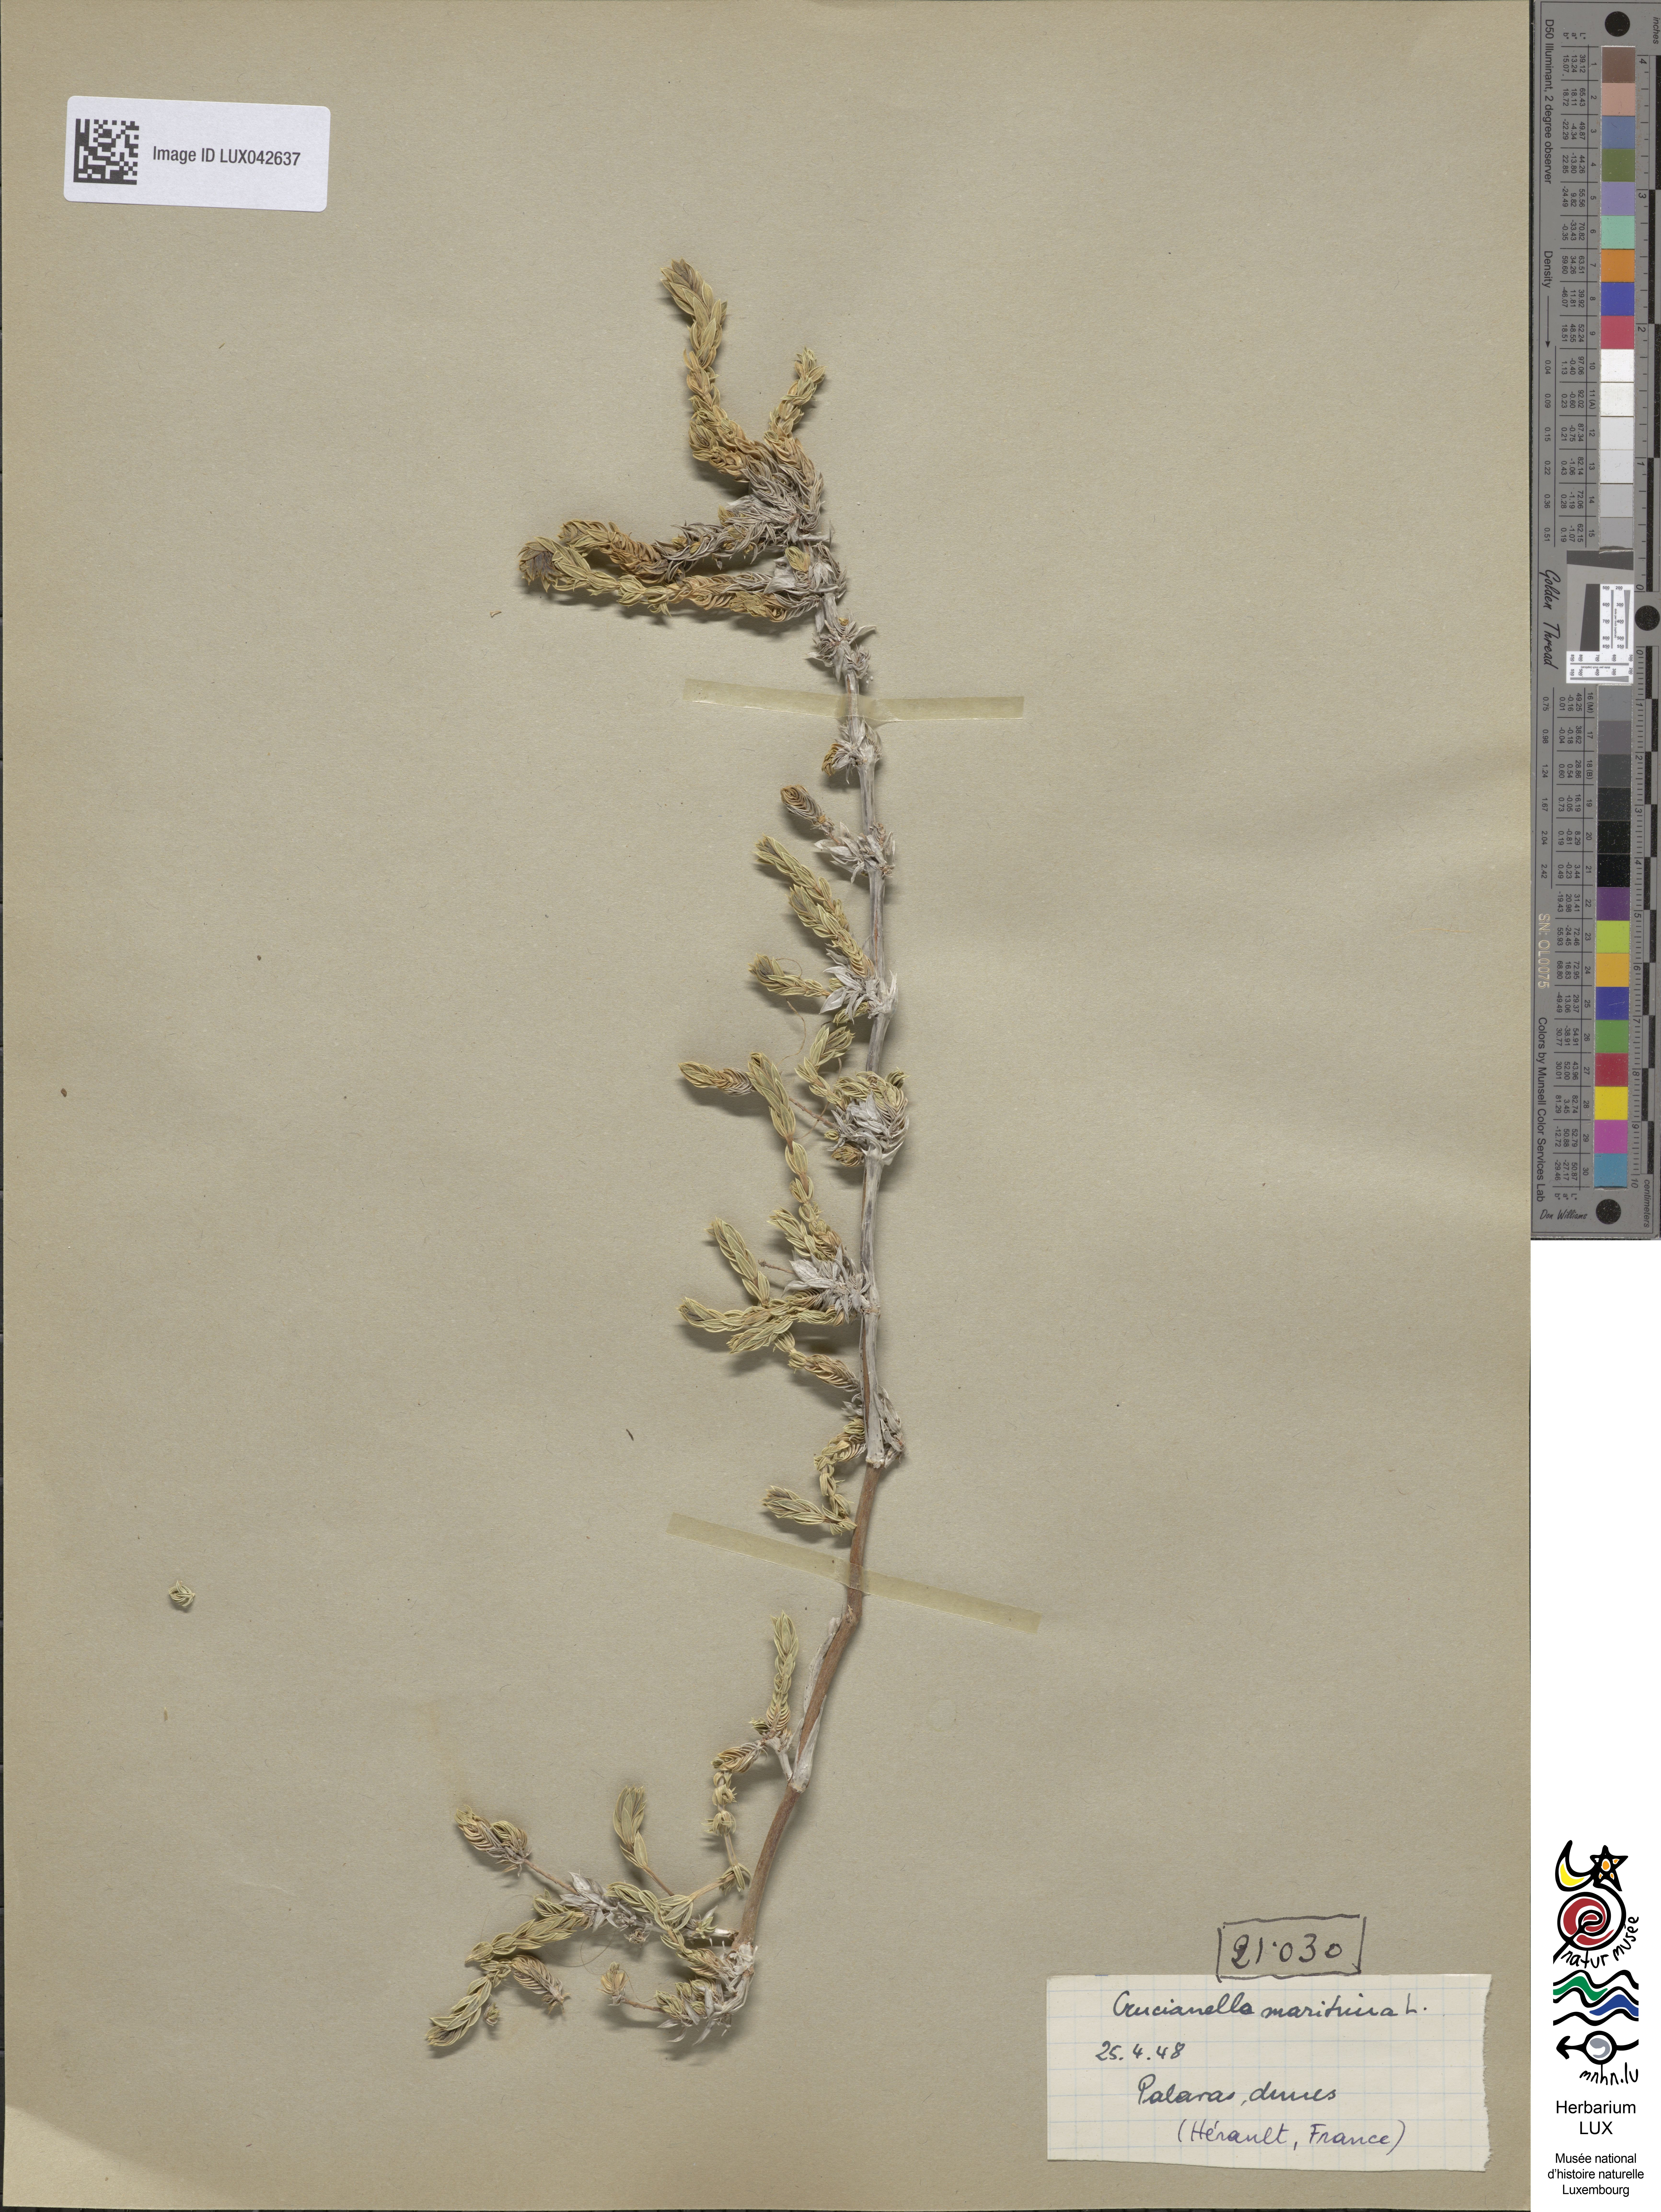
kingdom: Plantae
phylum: Tracheophyta
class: Magnoliopsida
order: Gentianales
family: Rubiaceae
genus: Crucianella
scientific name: Crucianella maritima
